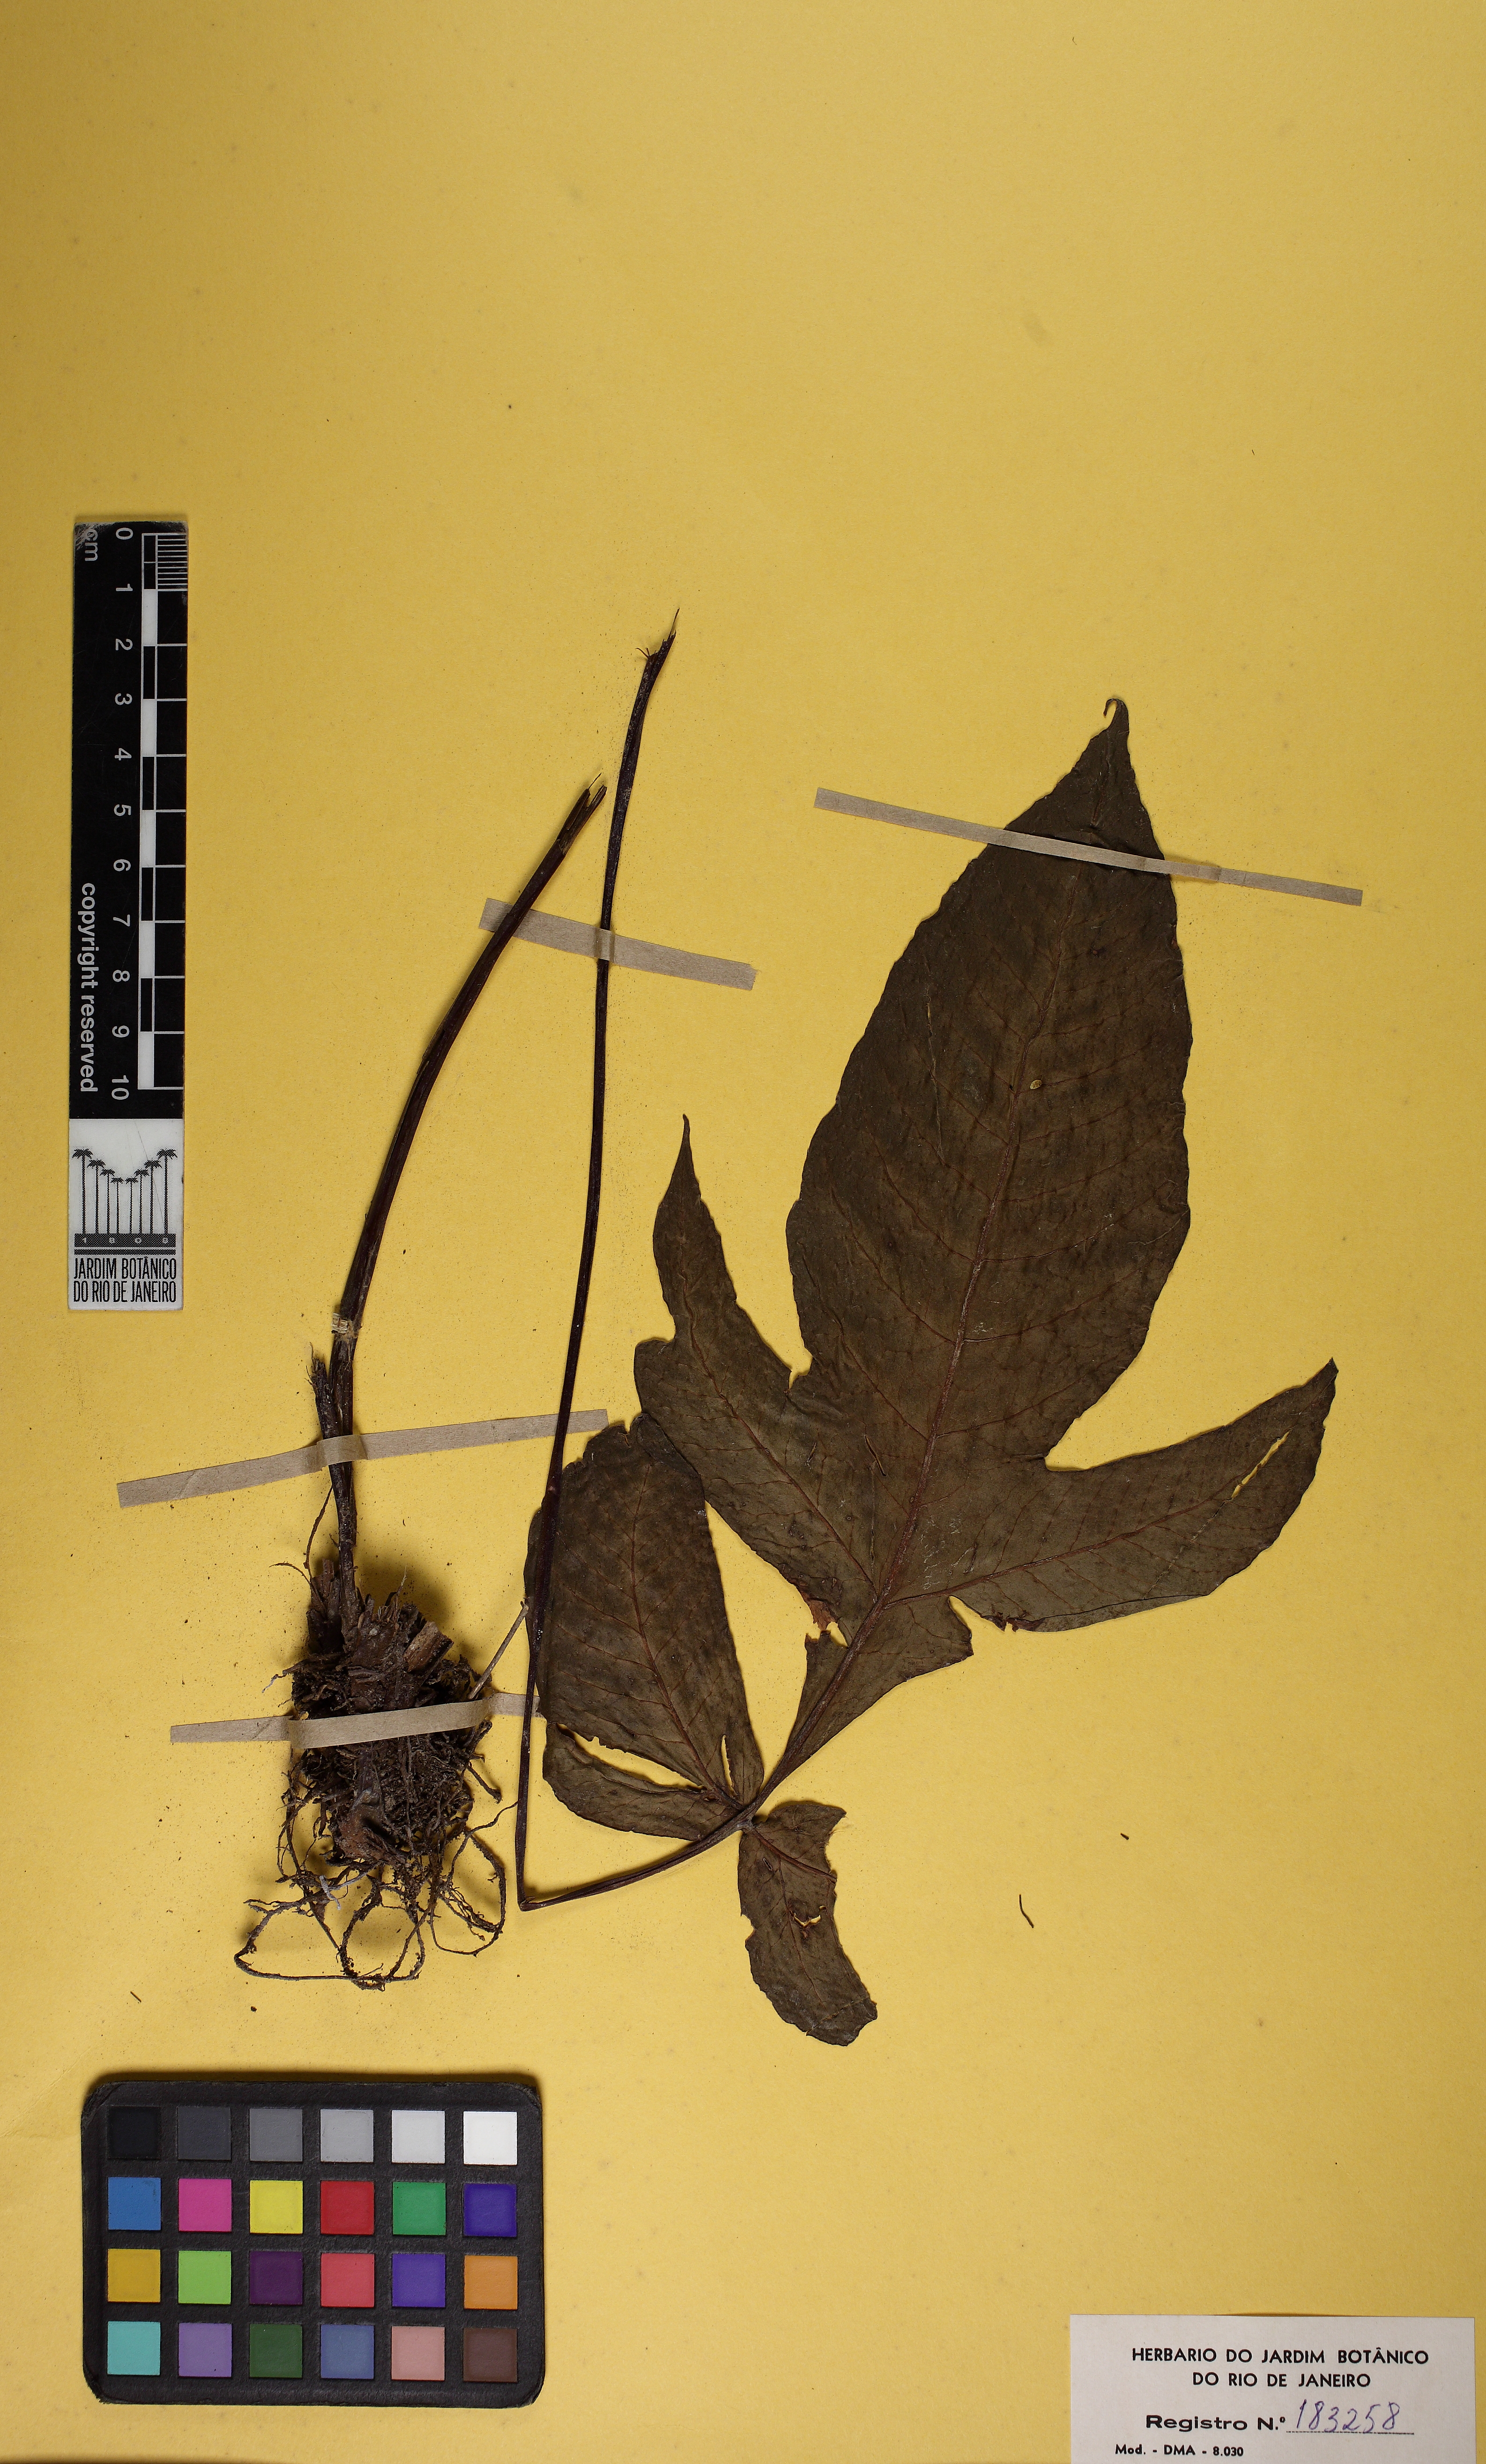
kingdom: Plantae
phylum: Tracheophyta
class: Polypodiopsida
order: Polypodiales
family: Tectariaceae
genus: Tectaria
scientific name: Tectaria
